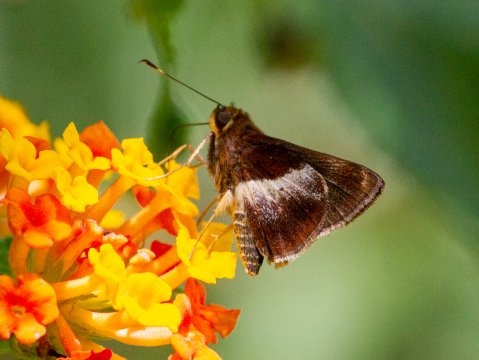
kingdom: Animalia
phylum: Arthropoda
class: Insecta
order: Lepidoptera
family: Hesperiidae
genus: Moeris
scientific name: Moeris
